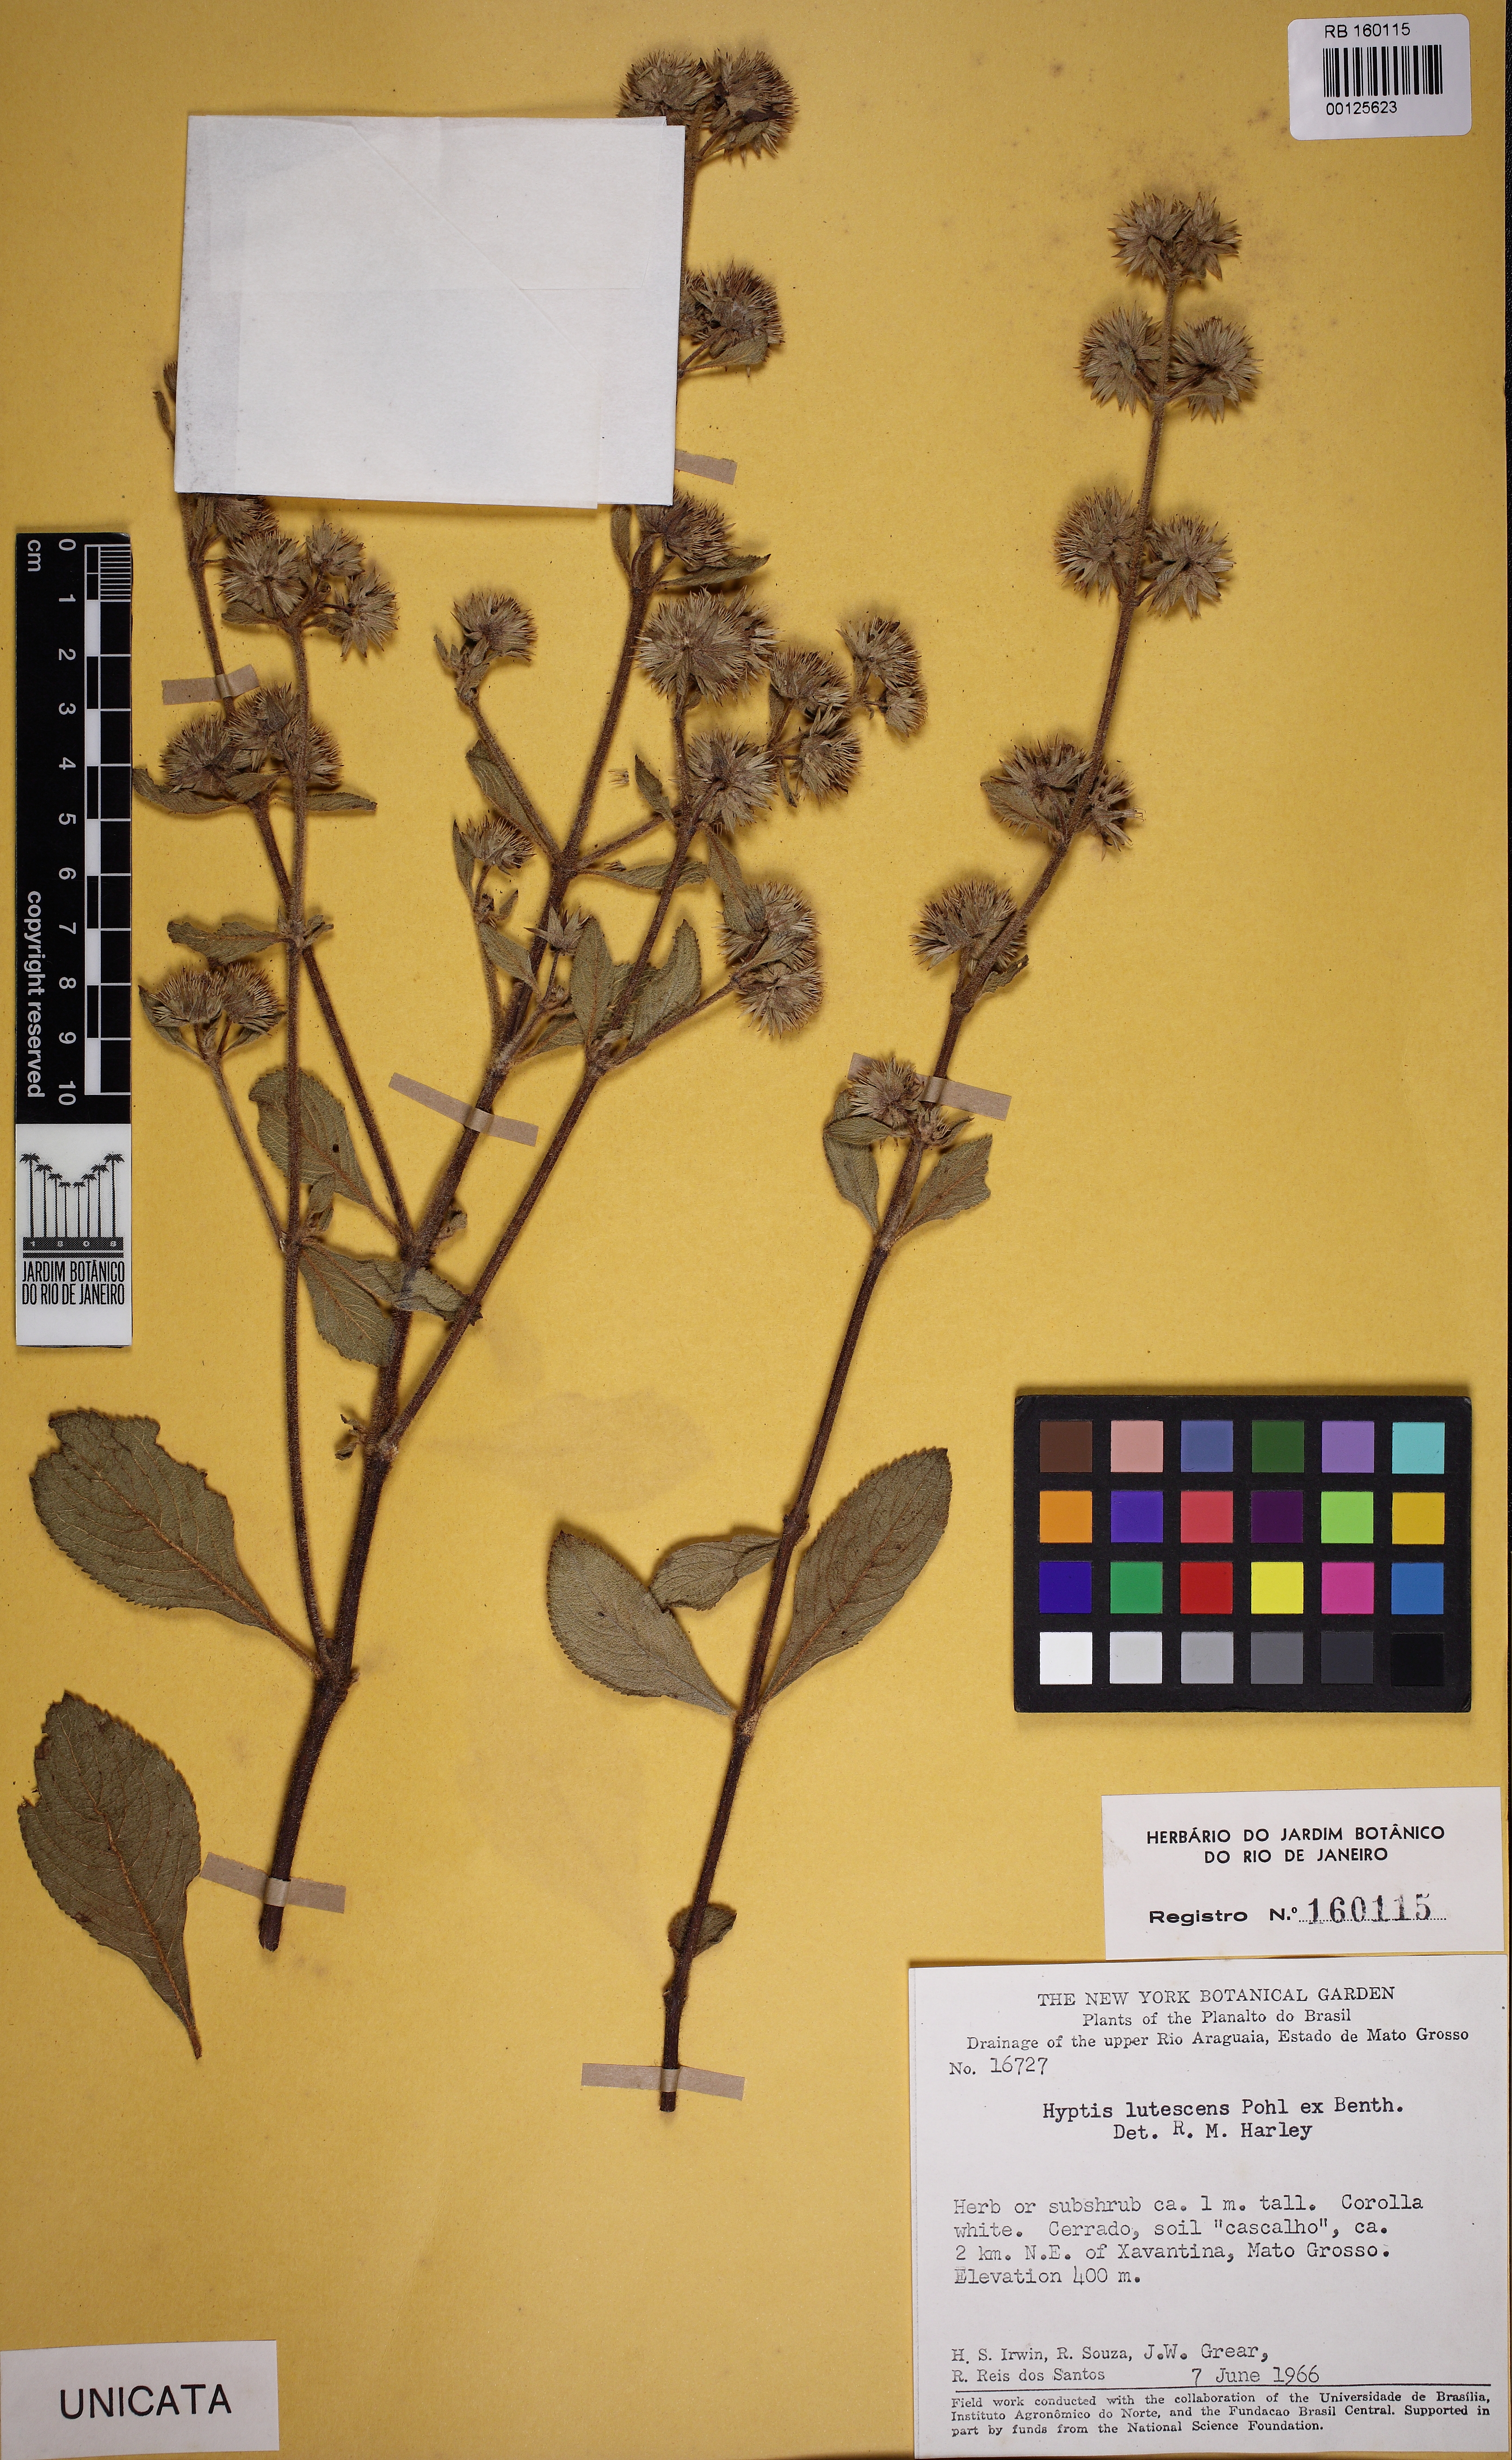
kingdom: Plantae
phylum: Tracheophyta
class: Magnoliopsida
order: Lamiales
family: Lamiaceae
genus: Hyptis
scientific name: Hyptis lutescens
